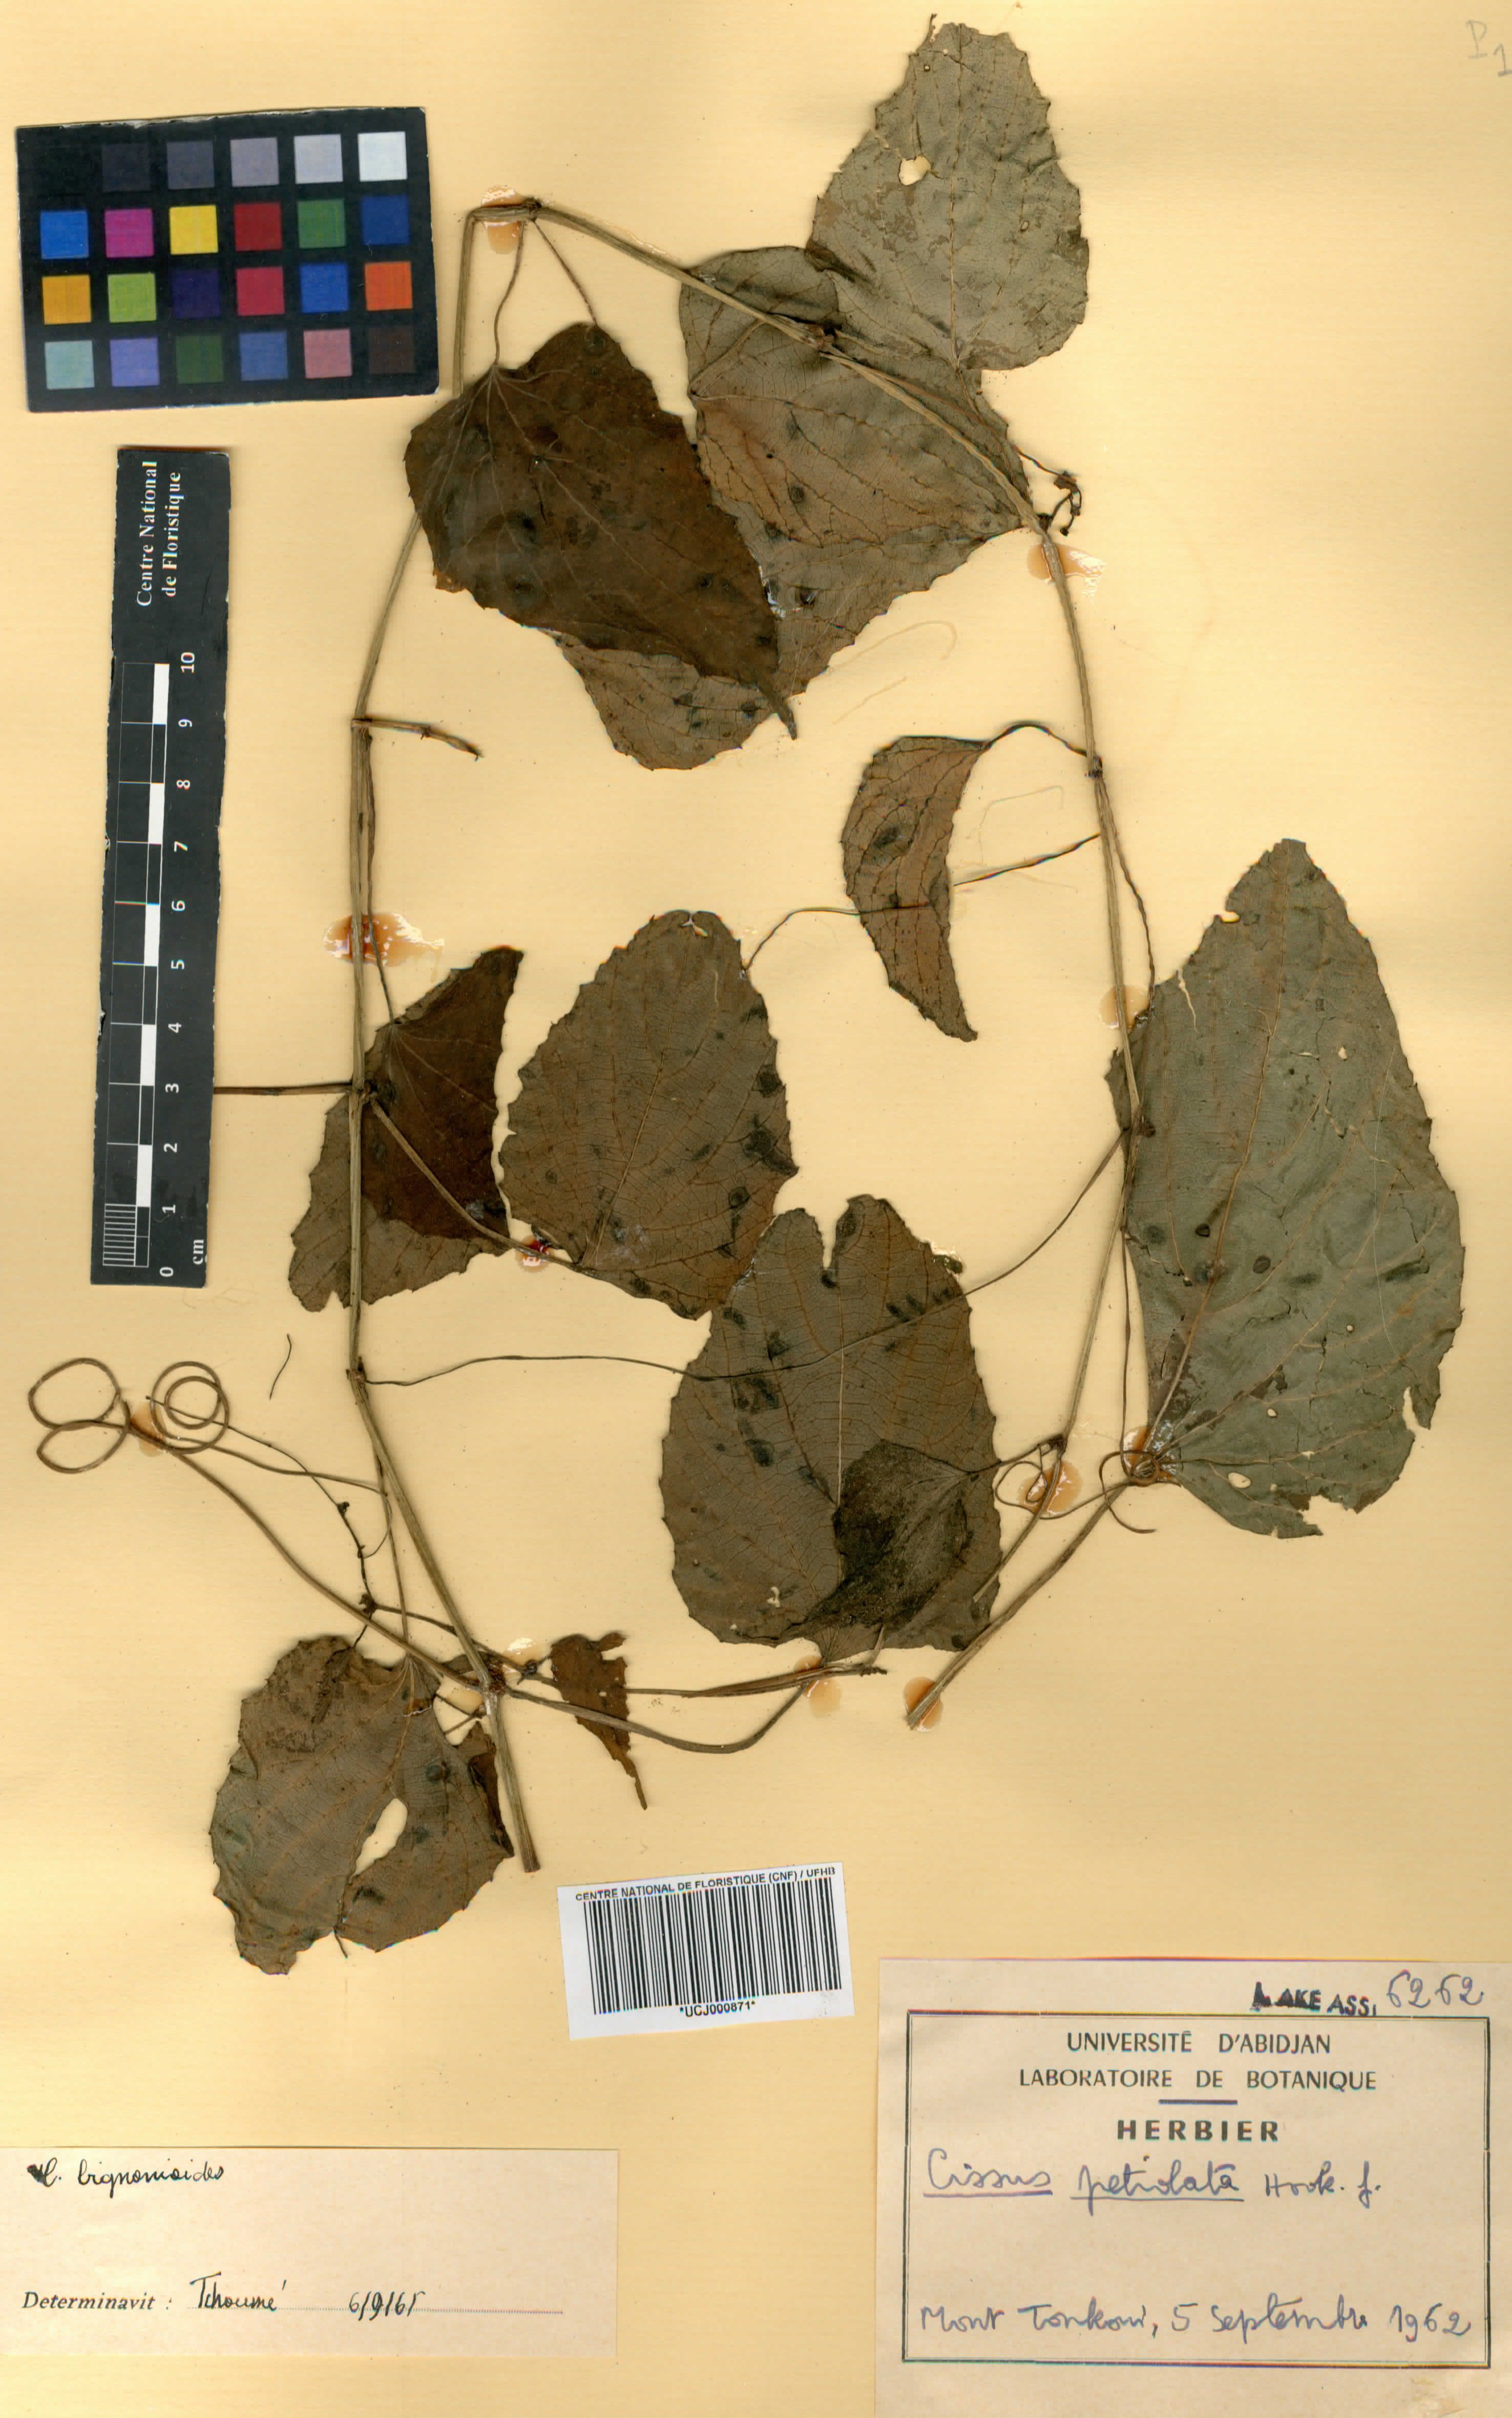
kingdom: Plantae
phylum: Tracheophyta
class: Magnoliopsida
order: Vitales
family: Vitaceae
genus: Cissus
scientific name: Cissus petiolata
